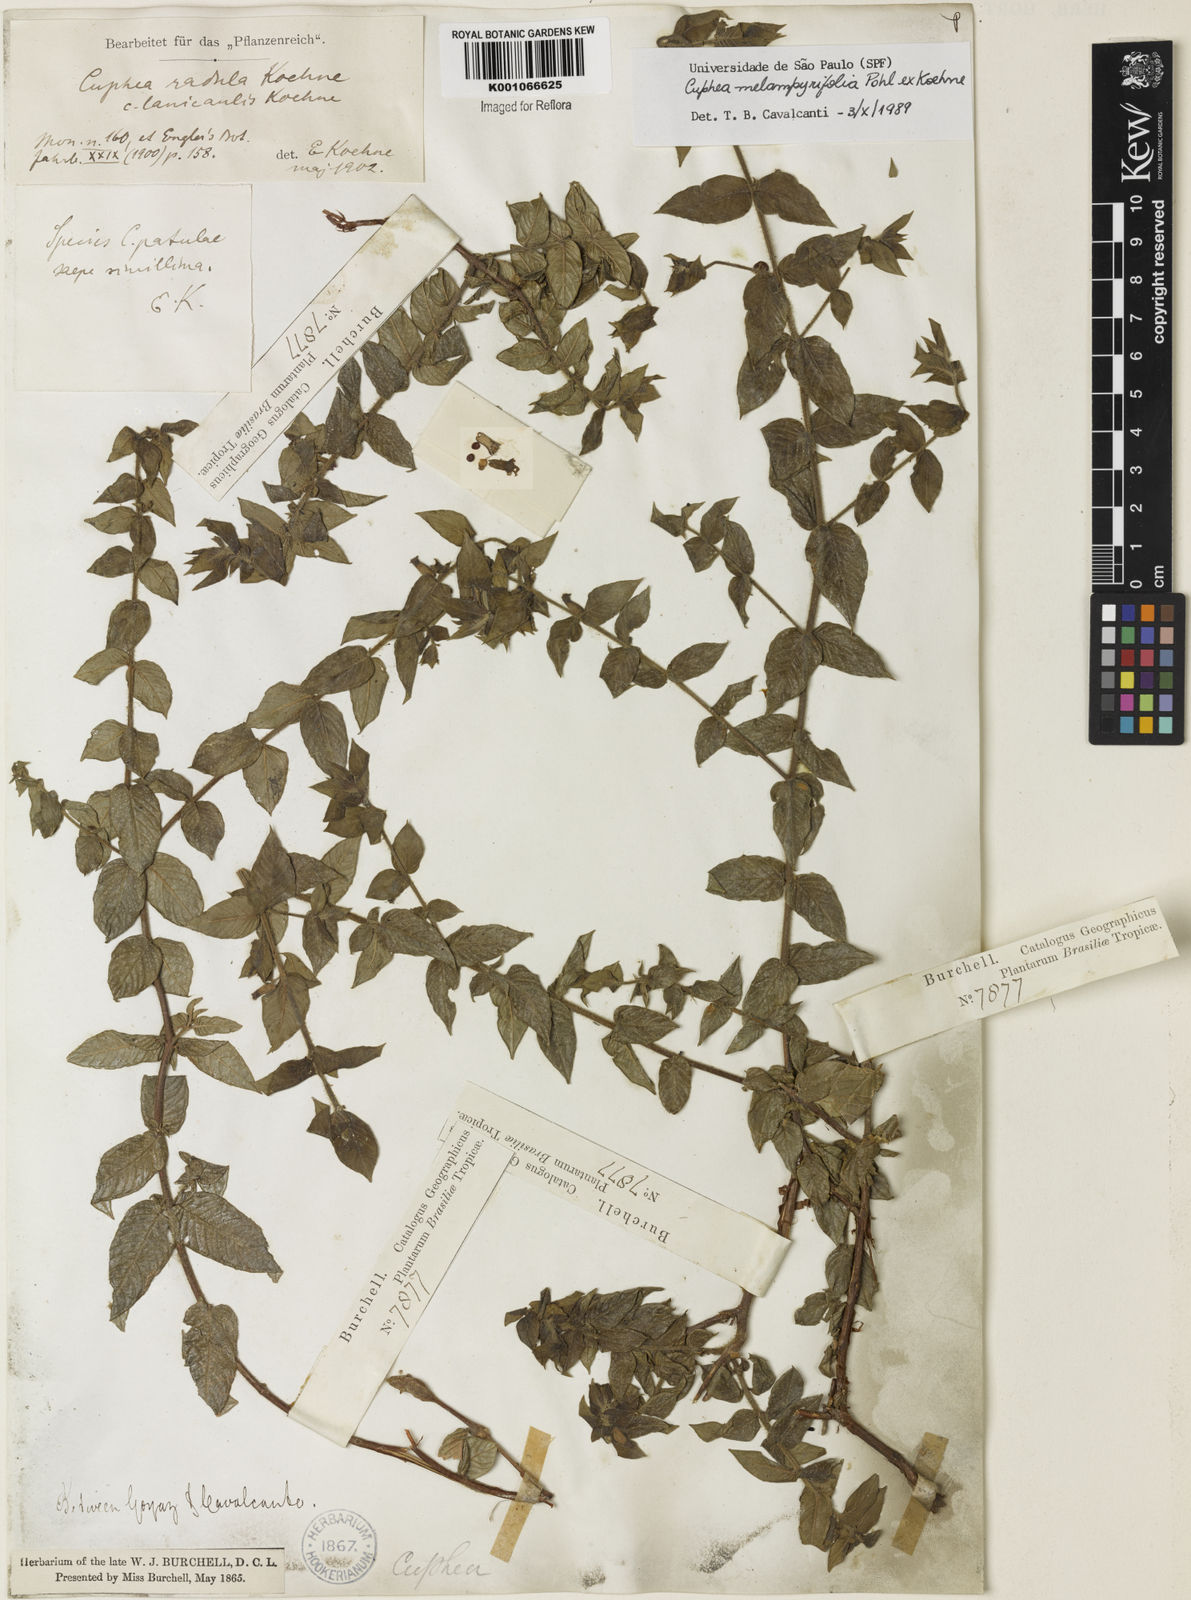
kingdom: Plantae
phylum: Tracheophyta
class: Magnoliopsida
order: Myrtales
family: Lythraceae
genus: Cuphea
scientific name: Cuphea antisyphilitica
